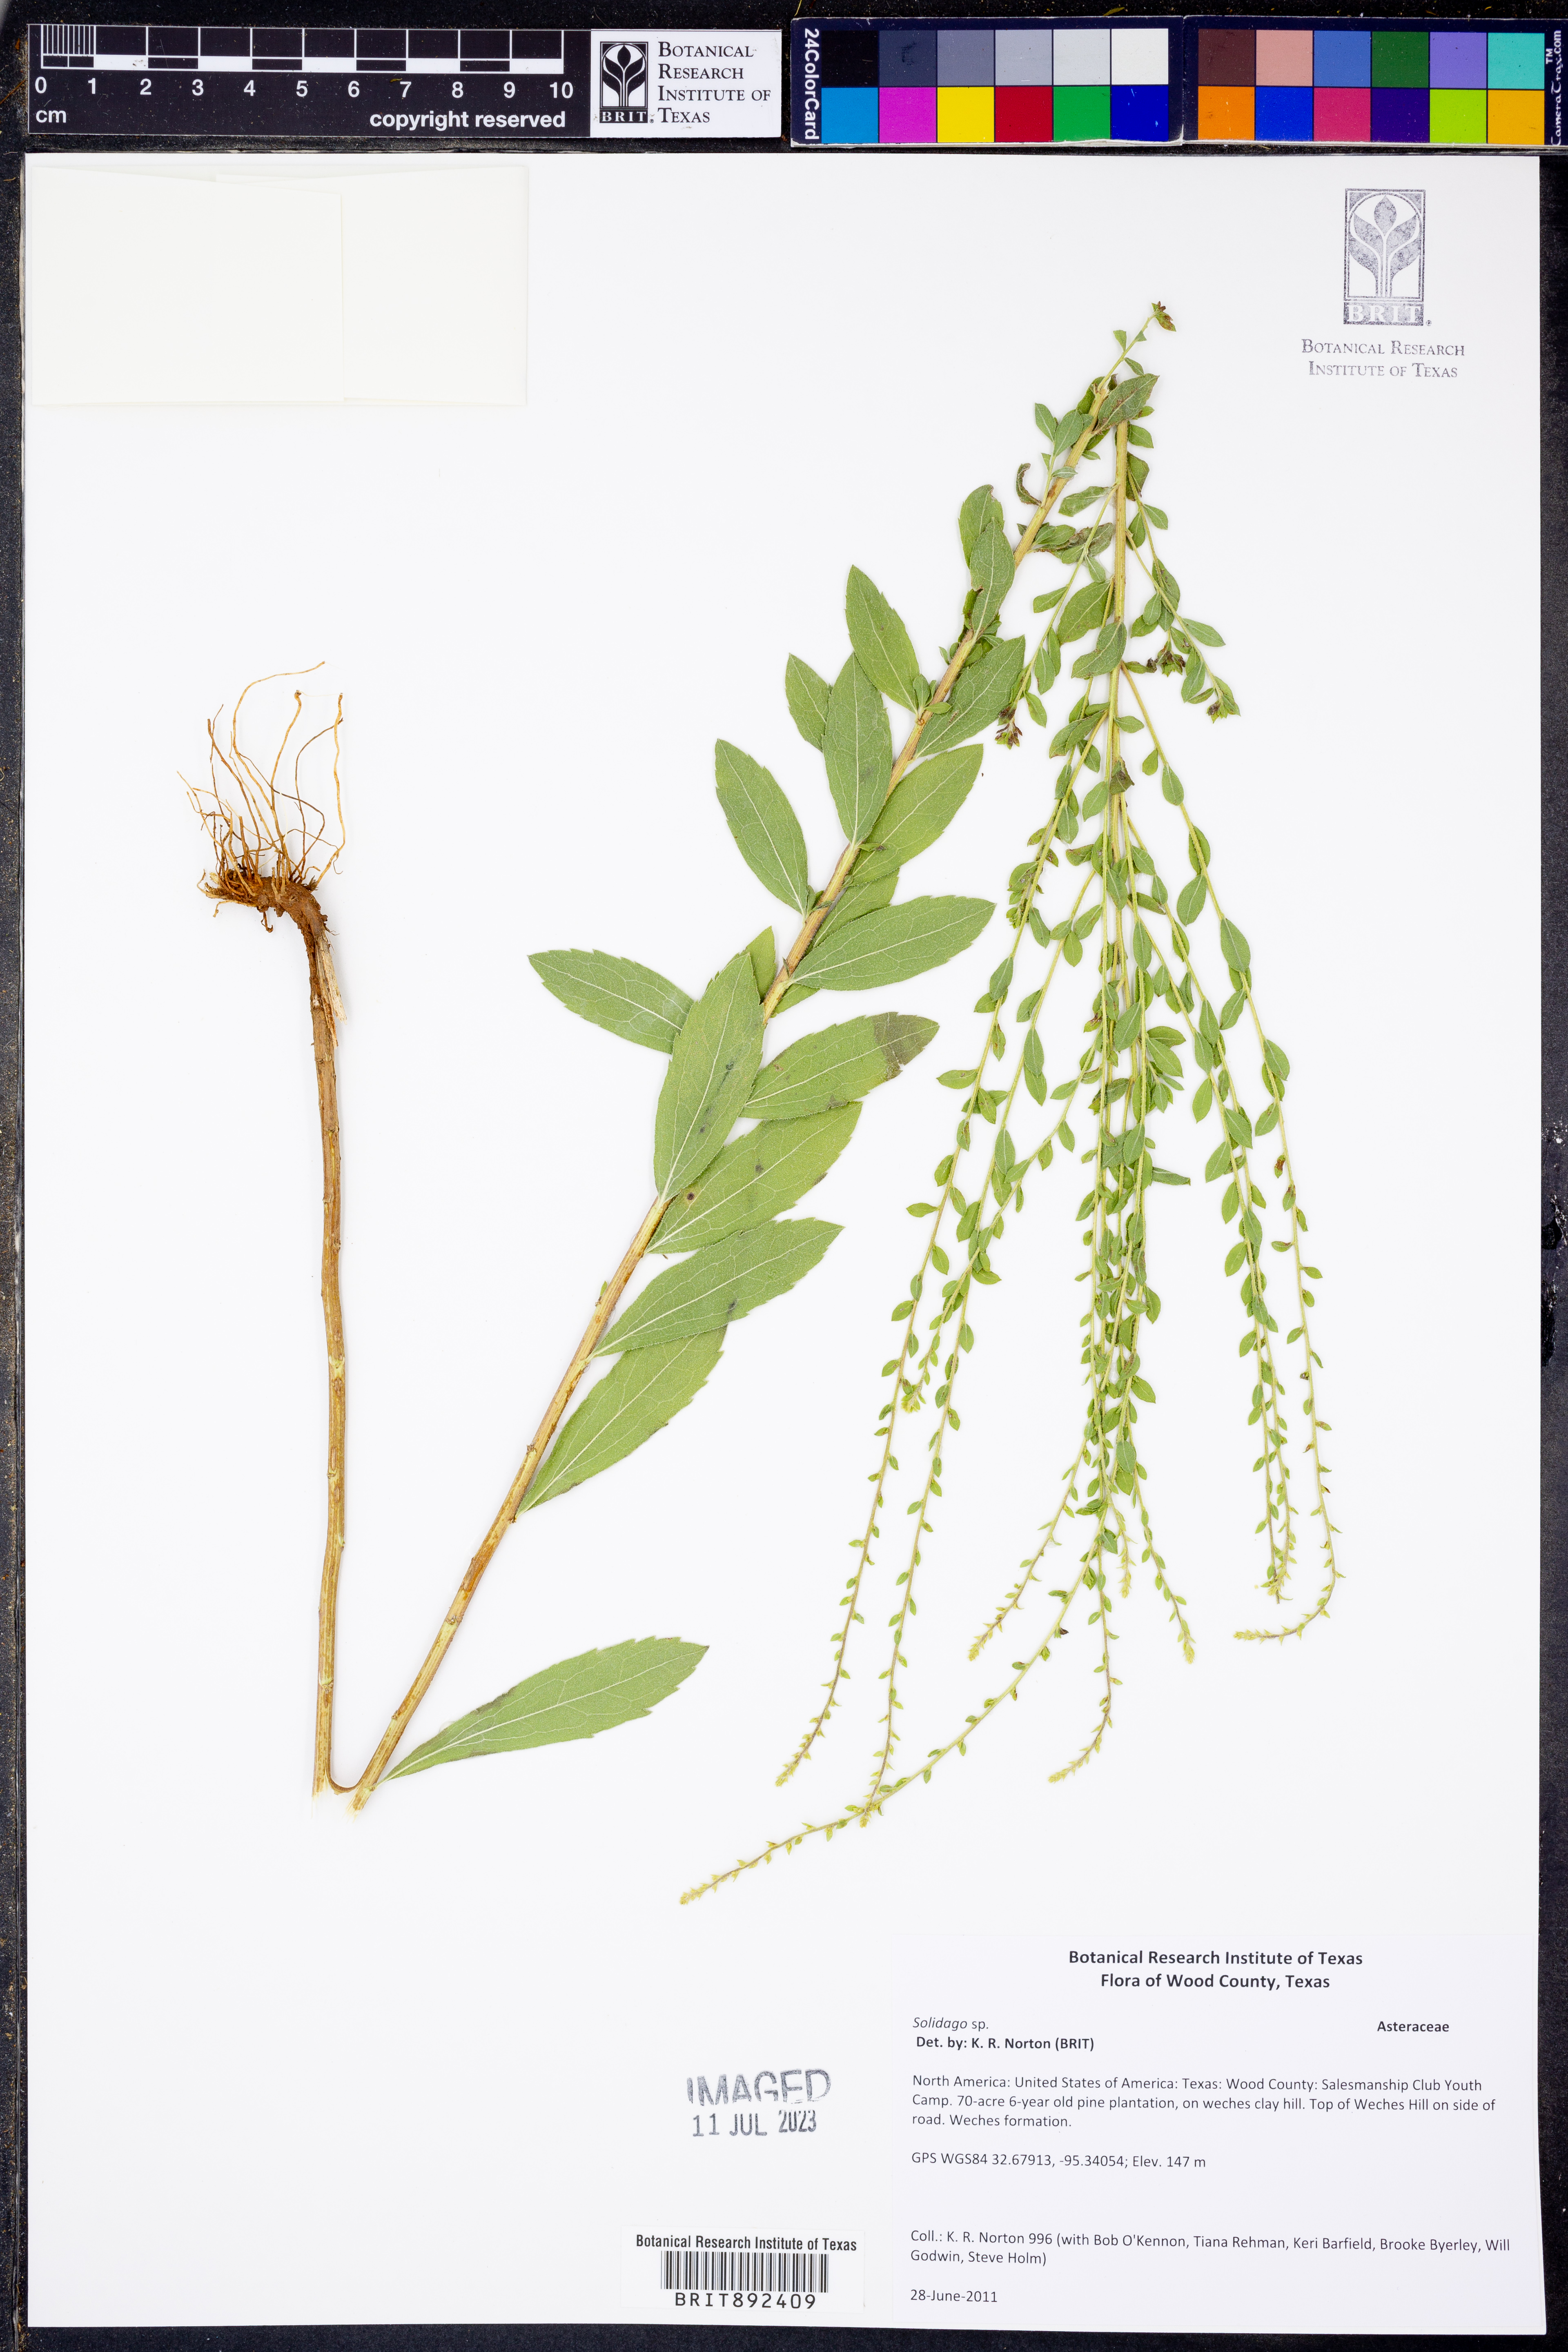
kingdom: Plantae
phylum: Tracheophyta
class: Magnoliopsida
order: Asterales
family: Asteraceae
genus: Solidago
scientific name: Solidago
